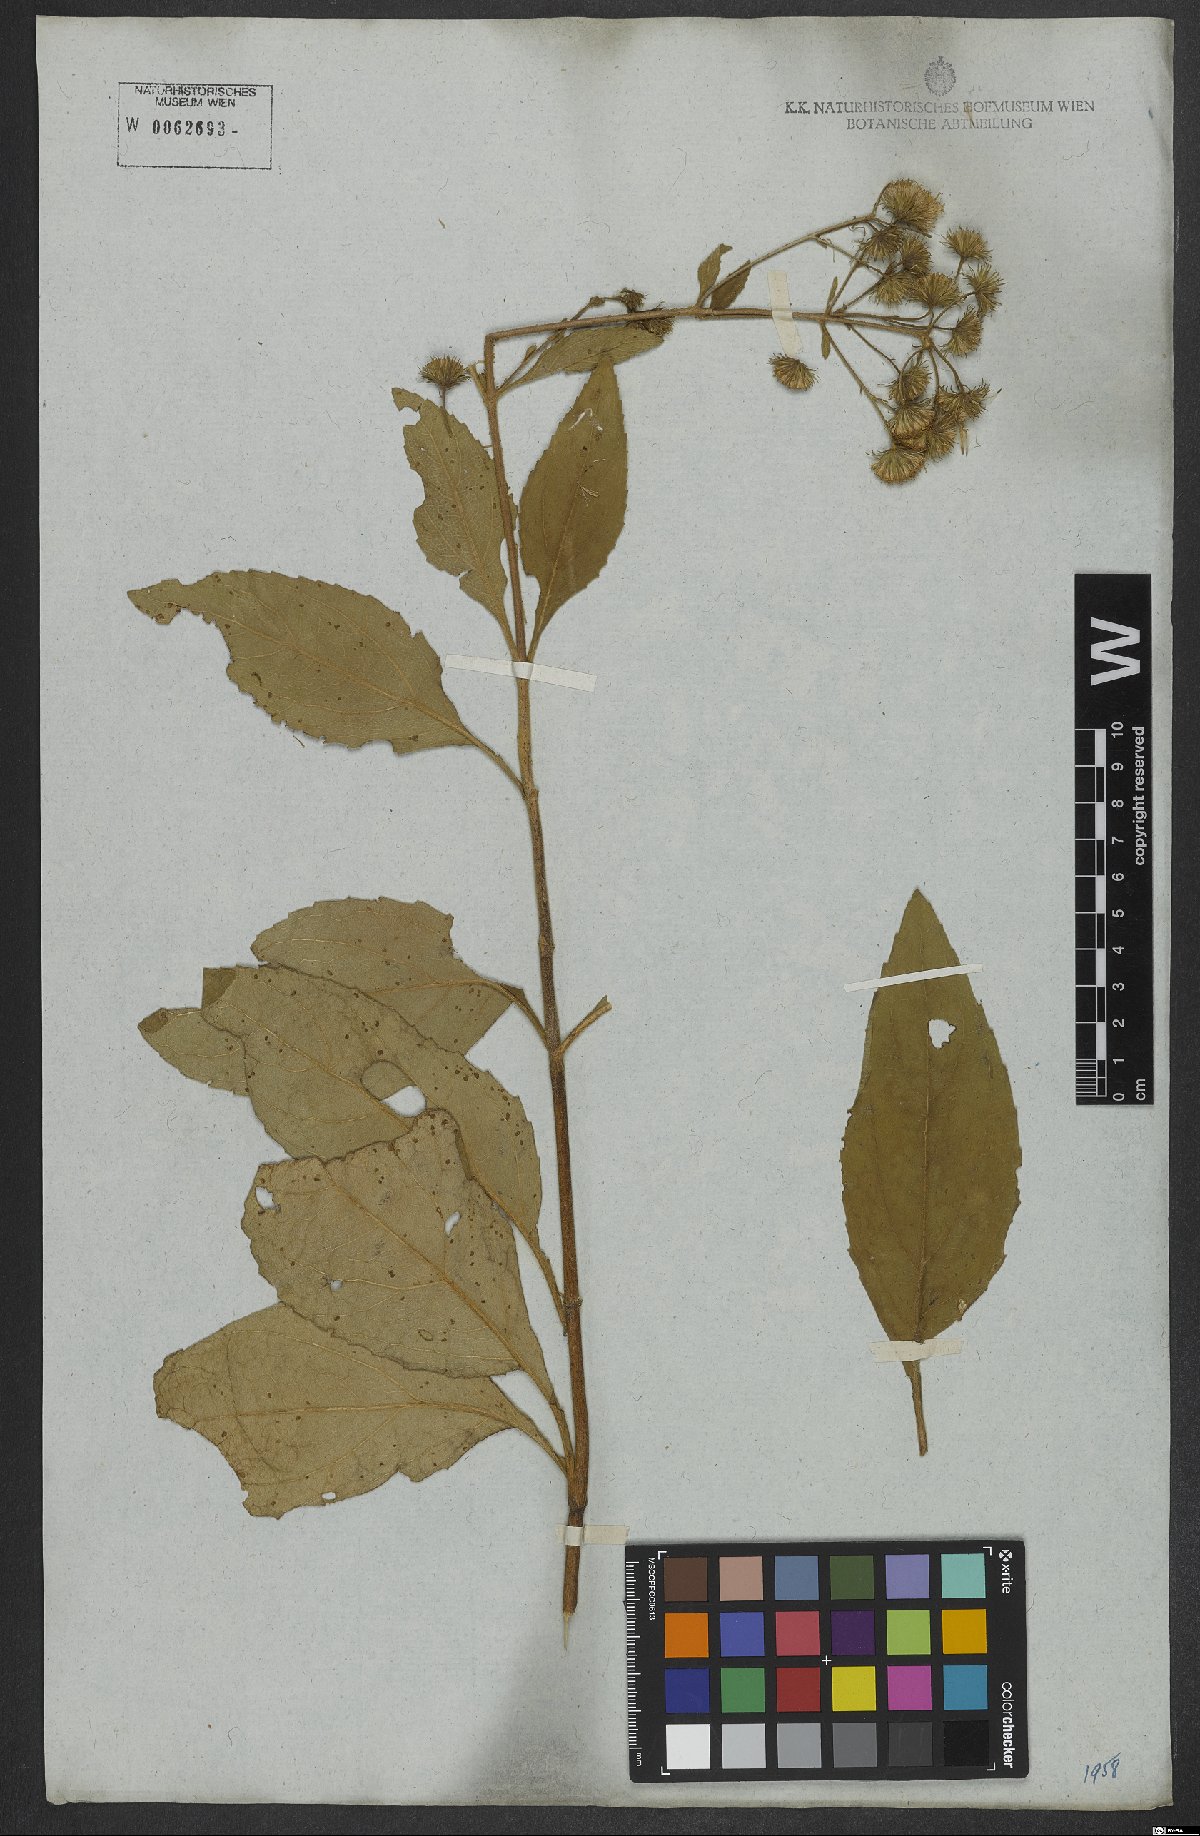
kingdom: Plantae
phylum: Tracheophyta
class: Magnoliopsida
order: Asterales
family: Asteraceae
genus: Ayapanopsis
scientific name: Ayapanopsis oblongifolia
